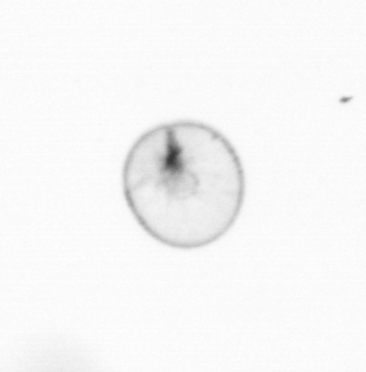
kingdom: Chromista
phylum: Myzozoa
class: Dinophyceae
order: Noctilucales
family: Noctilucaceae
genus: Noctiluca
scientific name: Noctiluca scintillans
